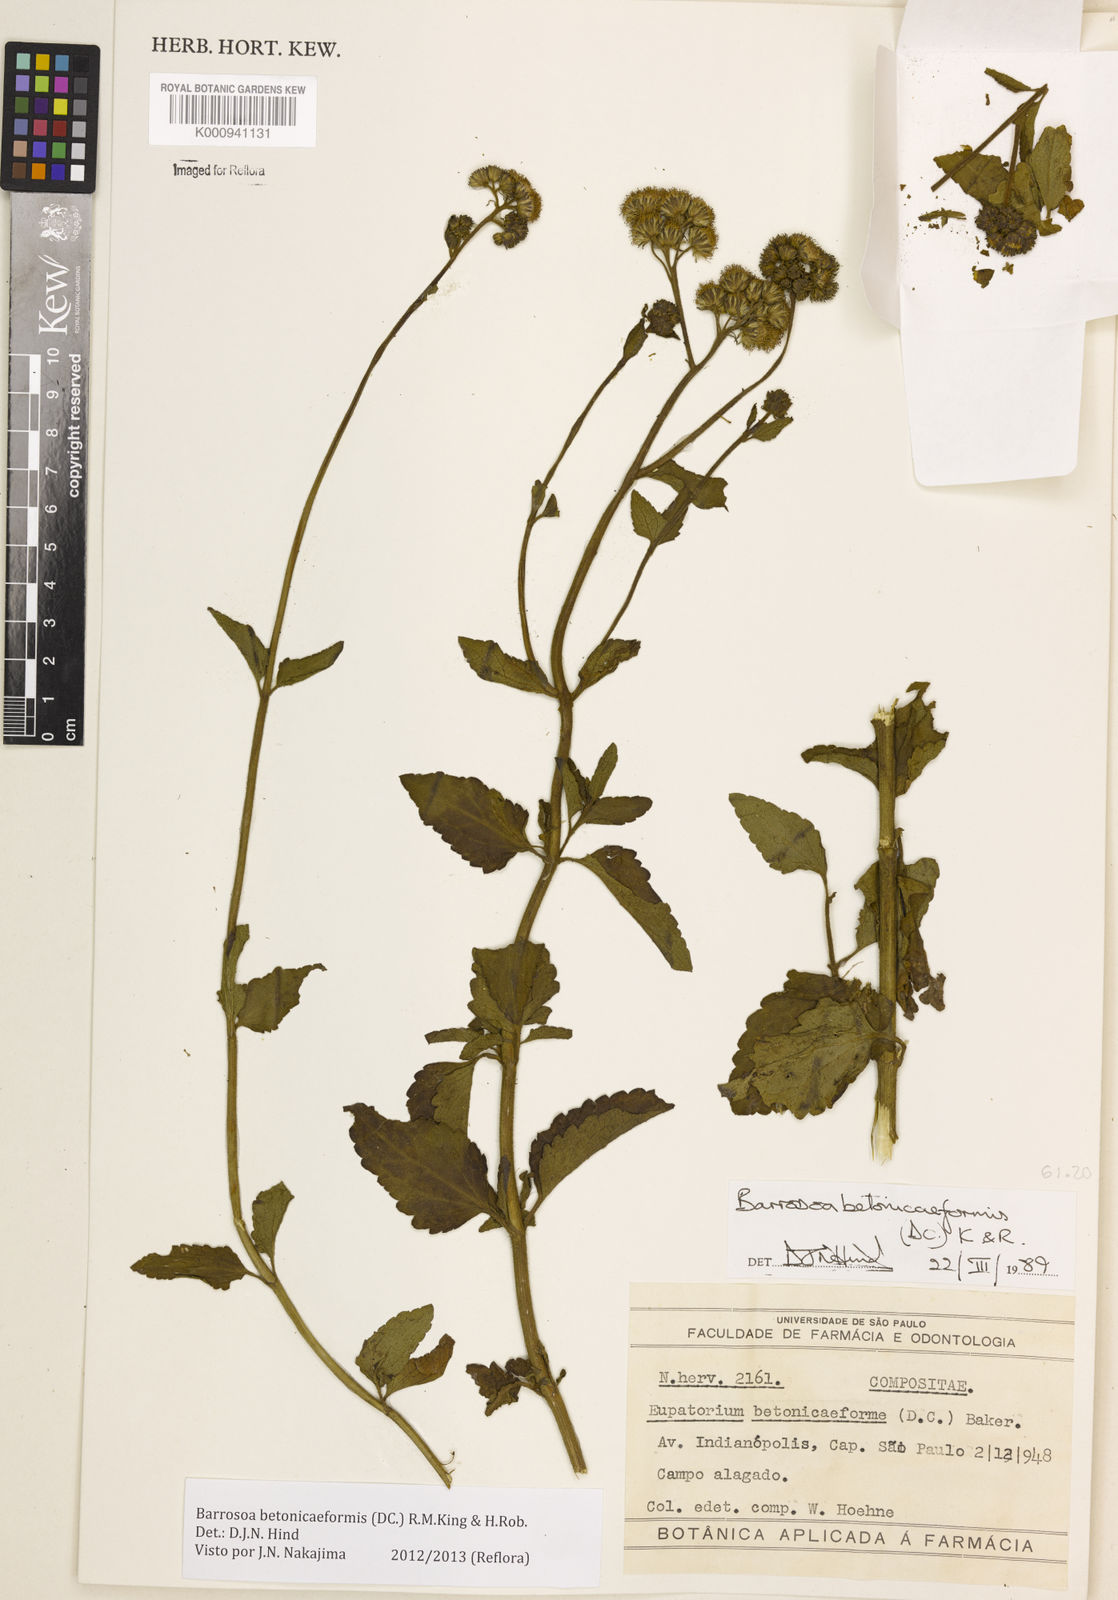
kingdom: Plantae
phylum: Tracheophyta
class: Magnoliopsida
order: Asterales
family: Asteraceae
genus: Barrosoa
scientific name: Barrosoa betoniciformis
